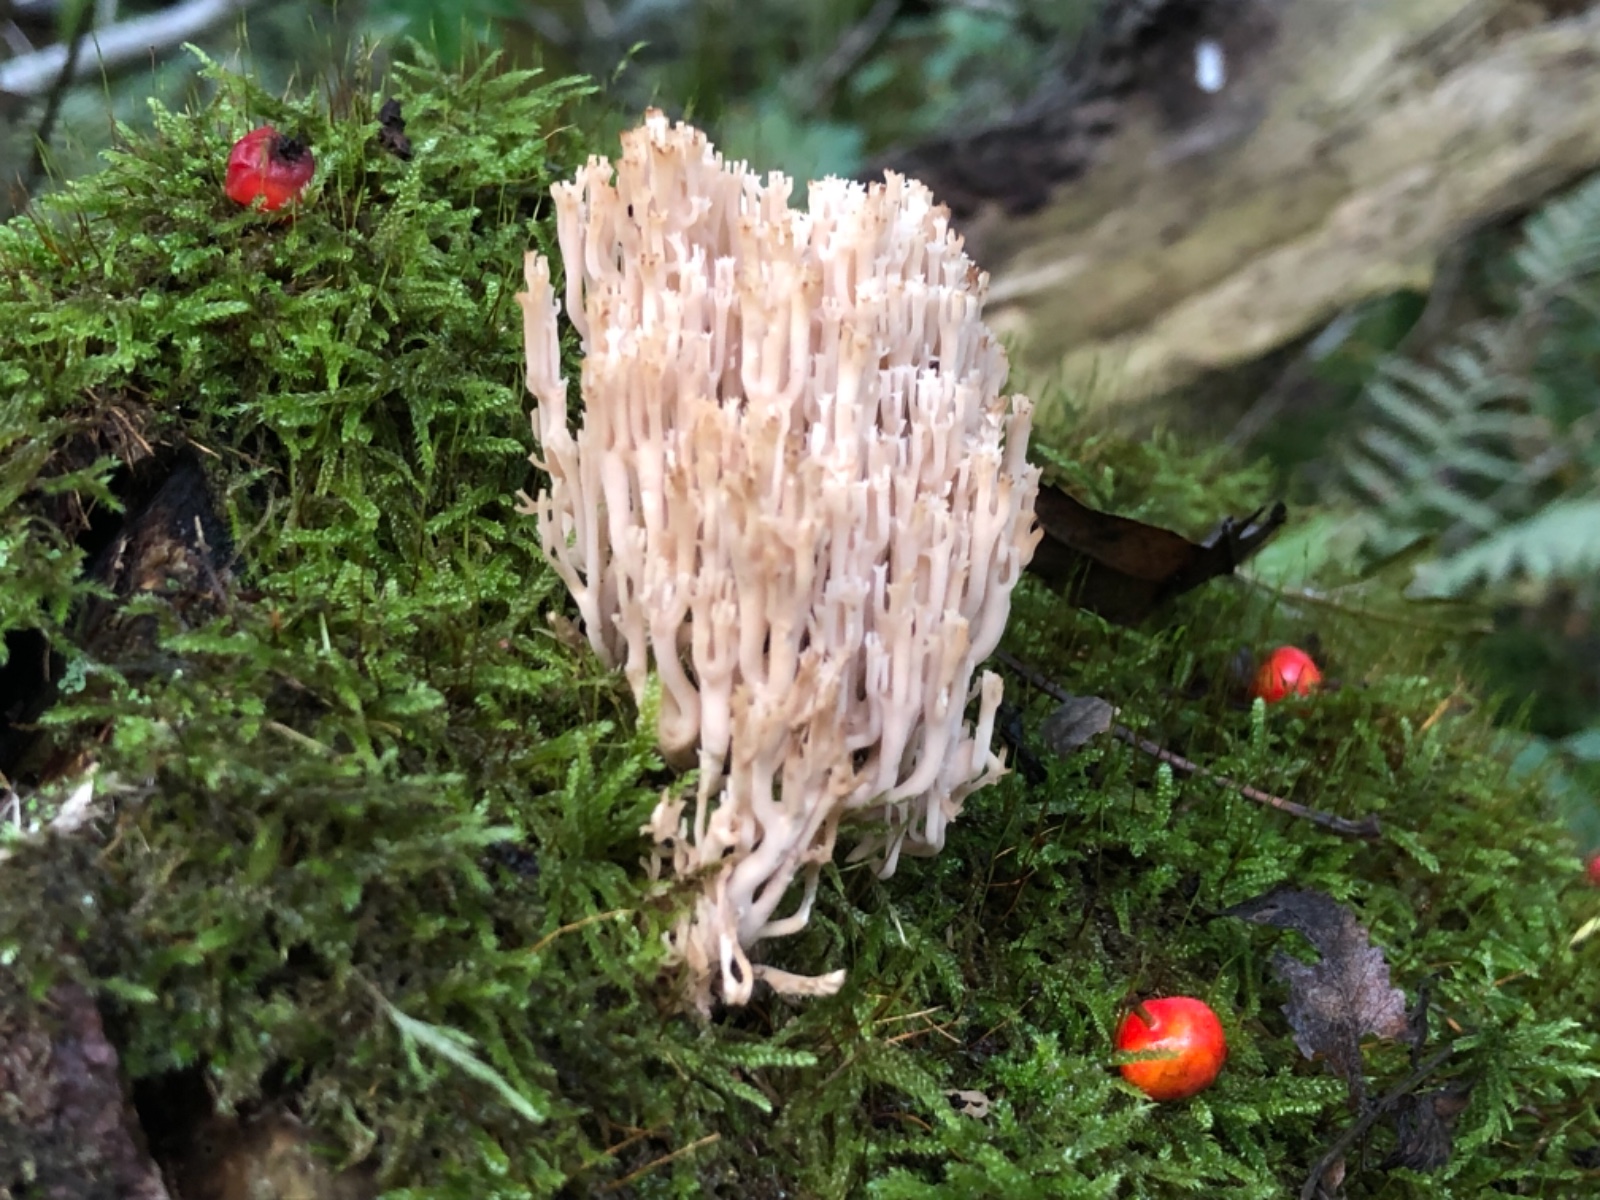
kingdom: Fungi
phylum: Basidiomycota
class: Agaricomycetes
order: Russulales
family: Auriscalpiaceae
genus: Artomyces
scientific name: Artomyces pyxidatus
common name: kandelabersvamp
